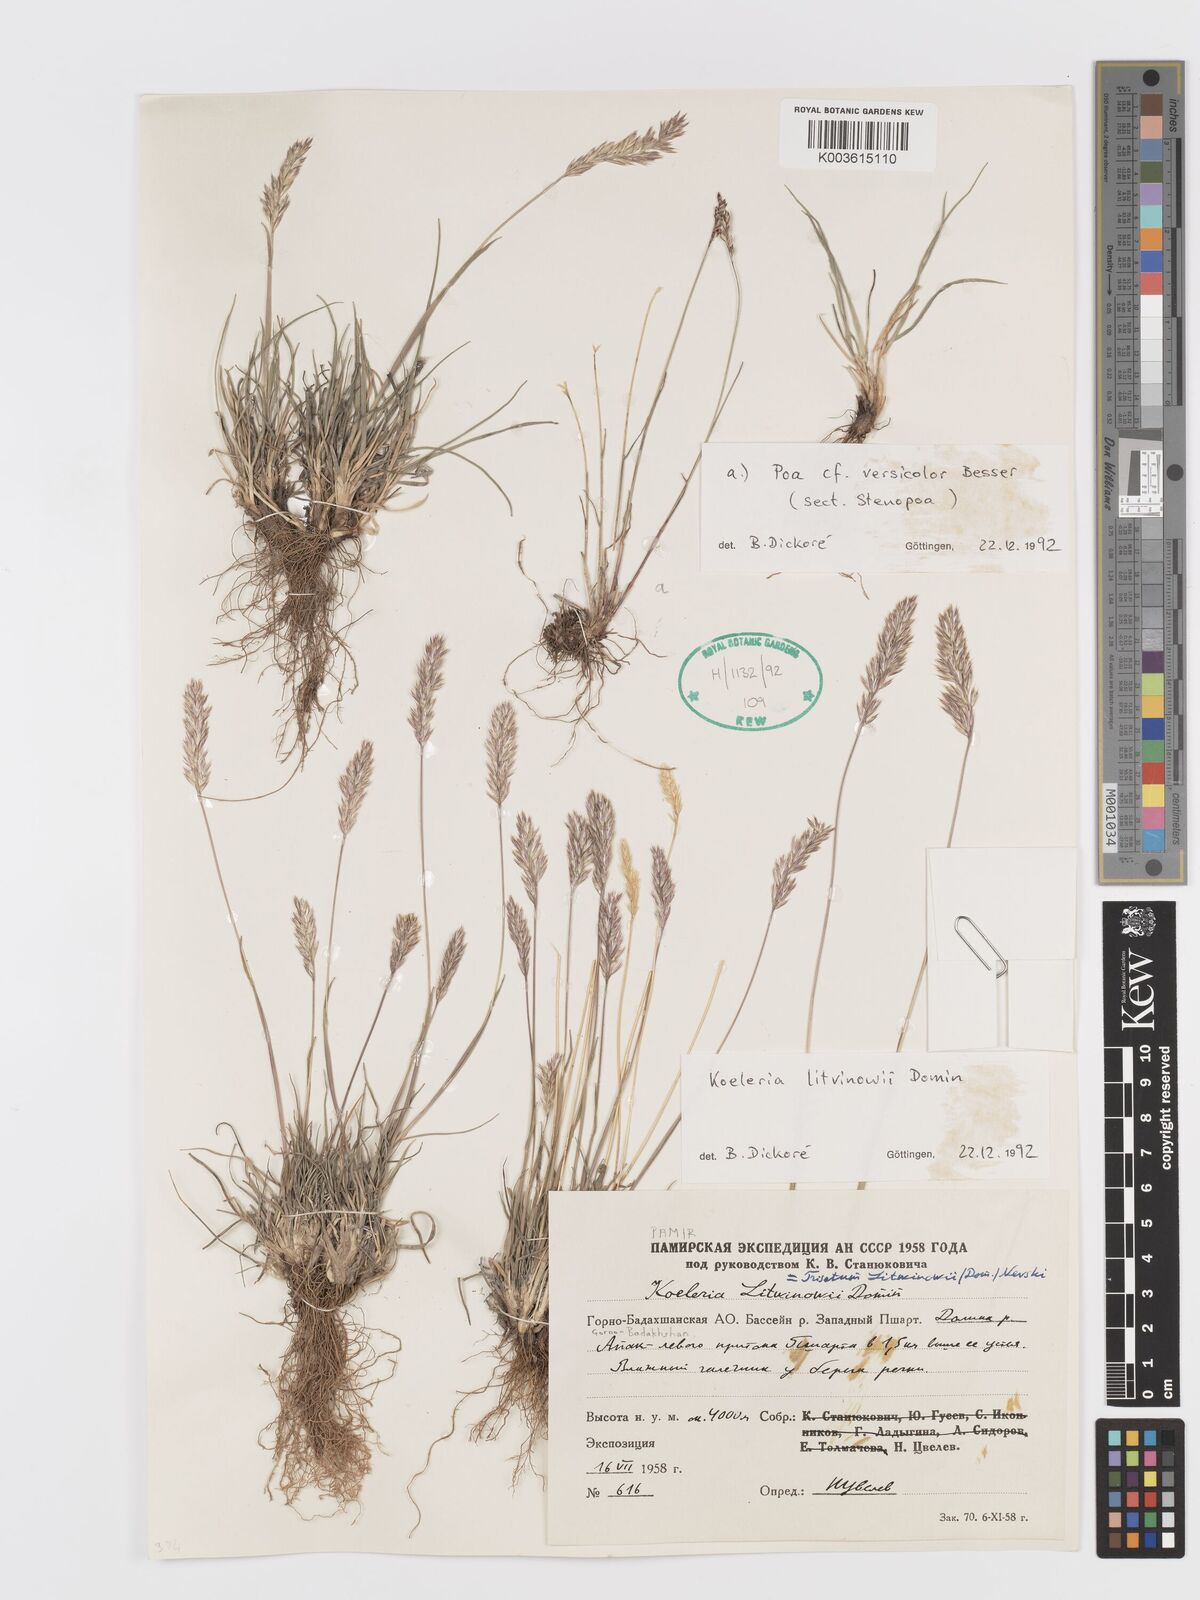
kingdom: Plantae
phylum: Tracheophyta
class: Liliopsida
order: Poales
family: Poaceae
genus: Koeleria
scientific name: Koeleria argentea
